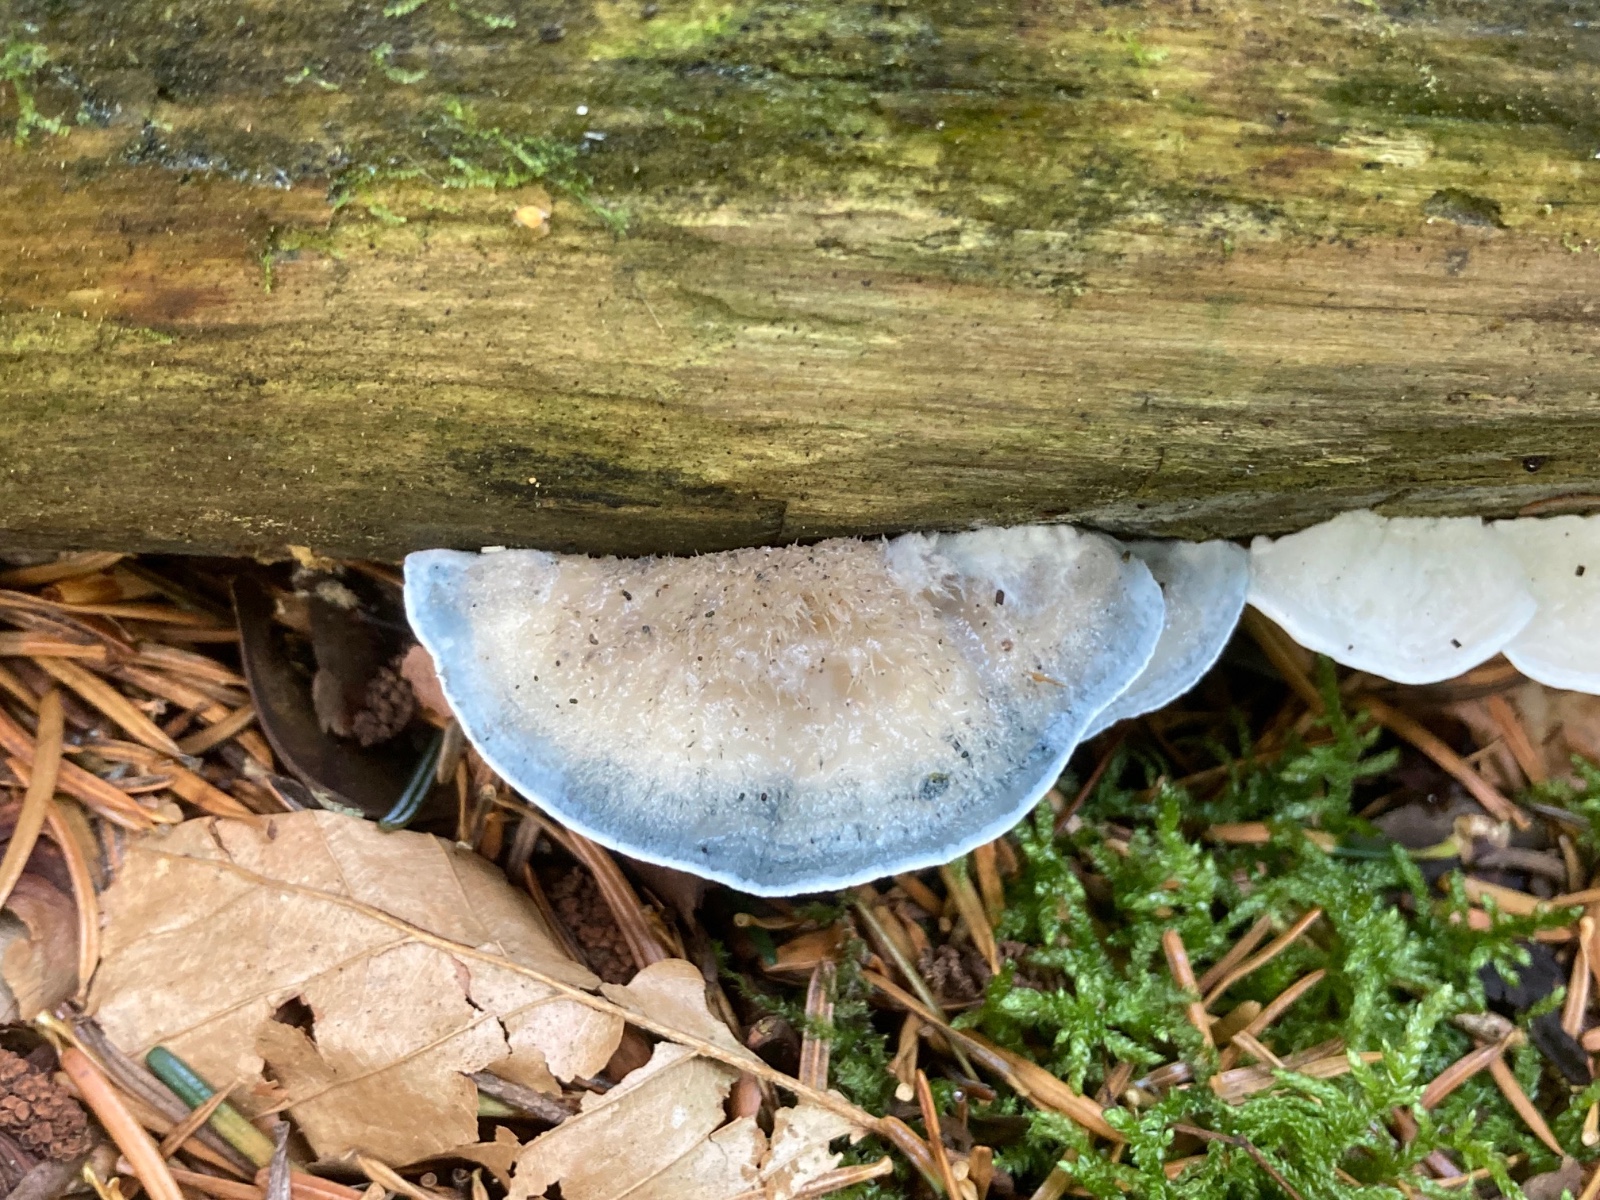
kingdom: Fungi
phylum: Basidiomycota
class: Agaricomycetes
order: Polyporales
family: Polyporaceae
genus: Cyanosporus
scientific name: Cyanosporus caesius
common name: blålig kødporesvamp
